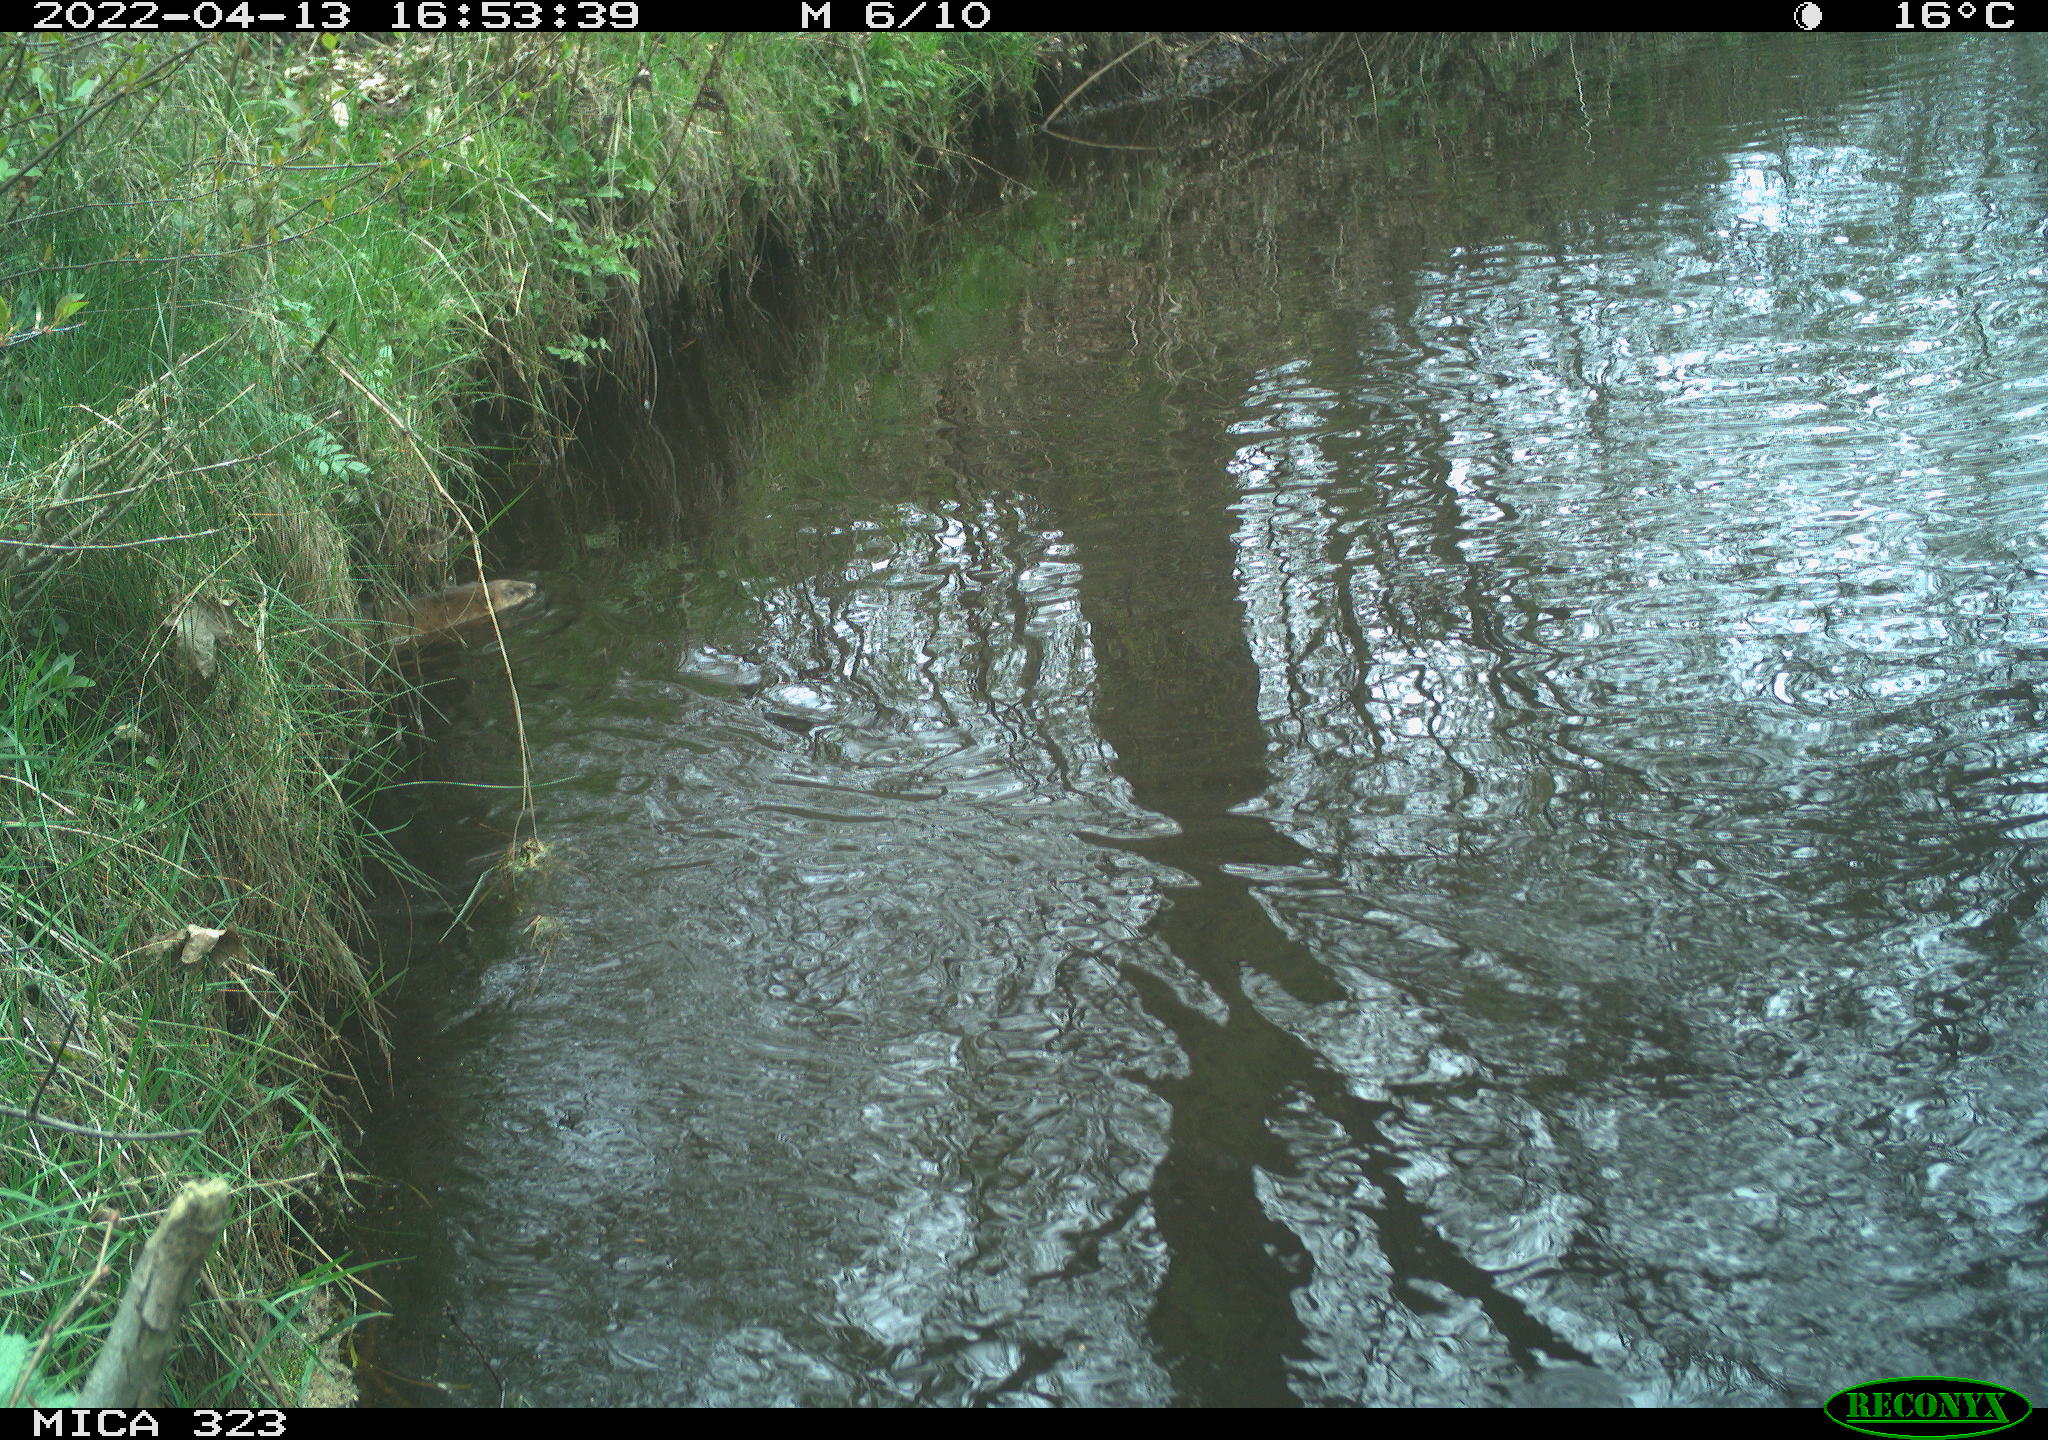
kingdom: Animalia
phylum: Chordata
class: Mammalia
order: Rodentia
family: Cricetidae
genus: Ondatra
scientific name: Ondatra zibethicus
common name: Muskrat
